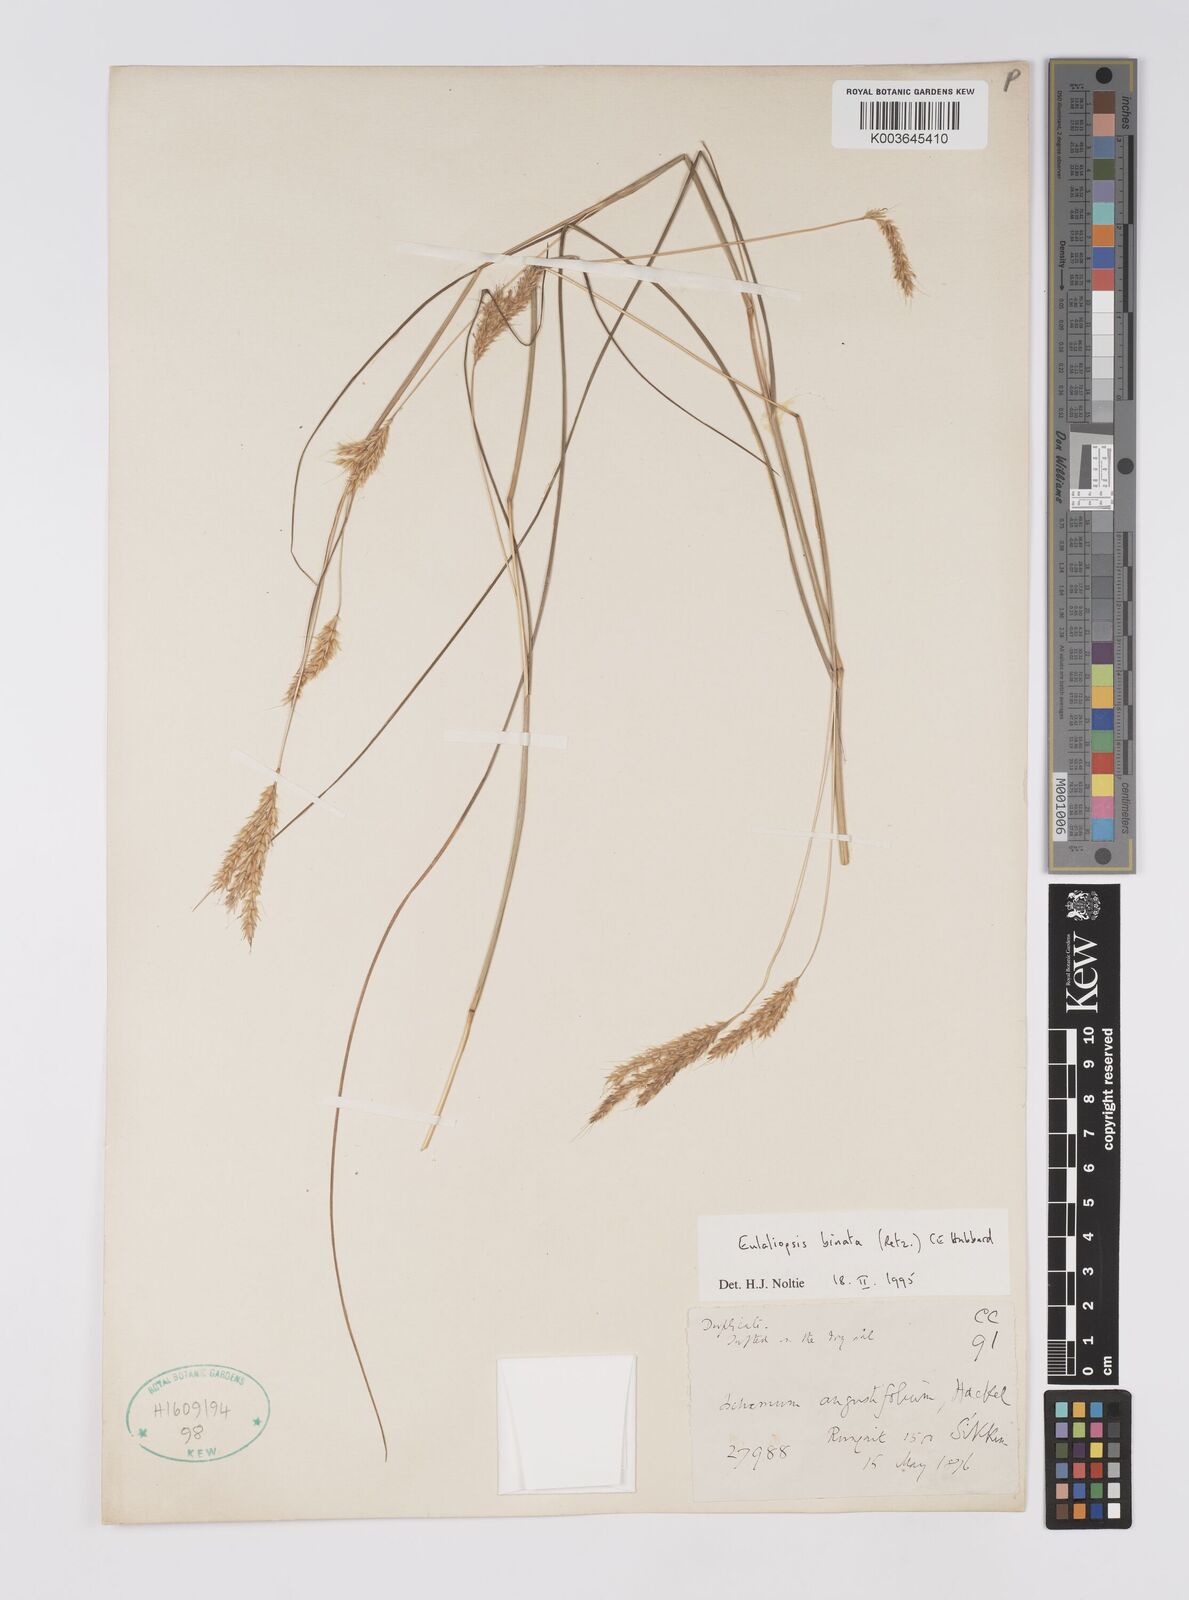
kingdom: Plantae
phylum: Tracheophyta
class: Liliopsida
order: Poales
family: Poaceae
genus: Eulaliopsis
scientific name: Eulaliopsis binata
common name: Baib grass
